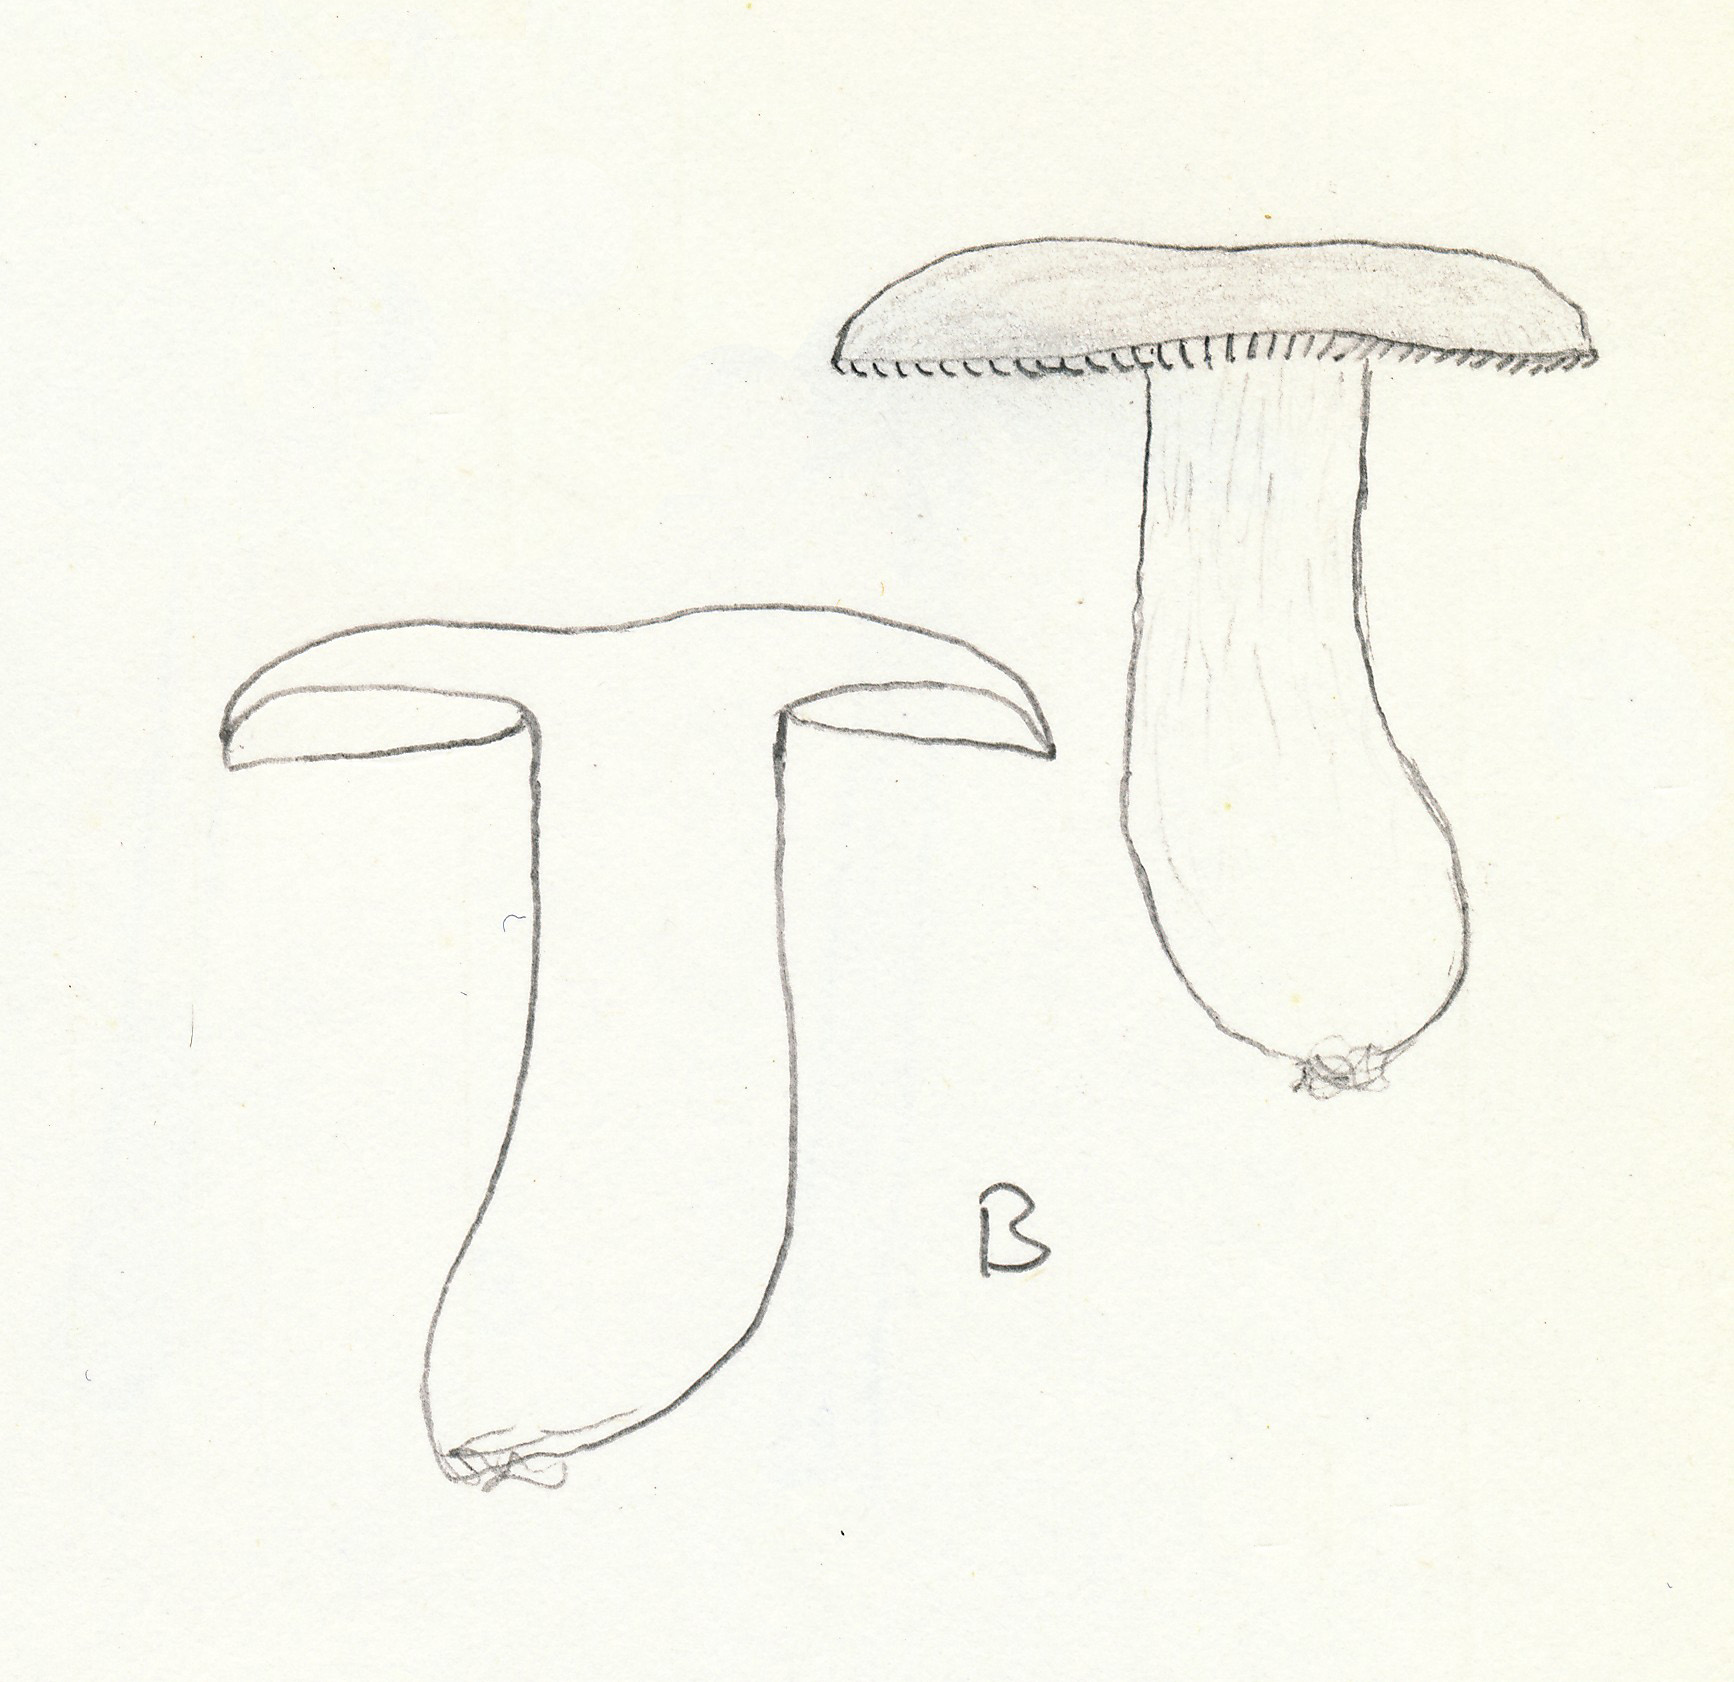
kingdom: Fungi
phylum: Basidiomycota
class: Agaricomycetes
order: Russulales
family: Russulaceae
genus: Russula
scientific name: Russula raoultii
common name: bleggul skørhat
